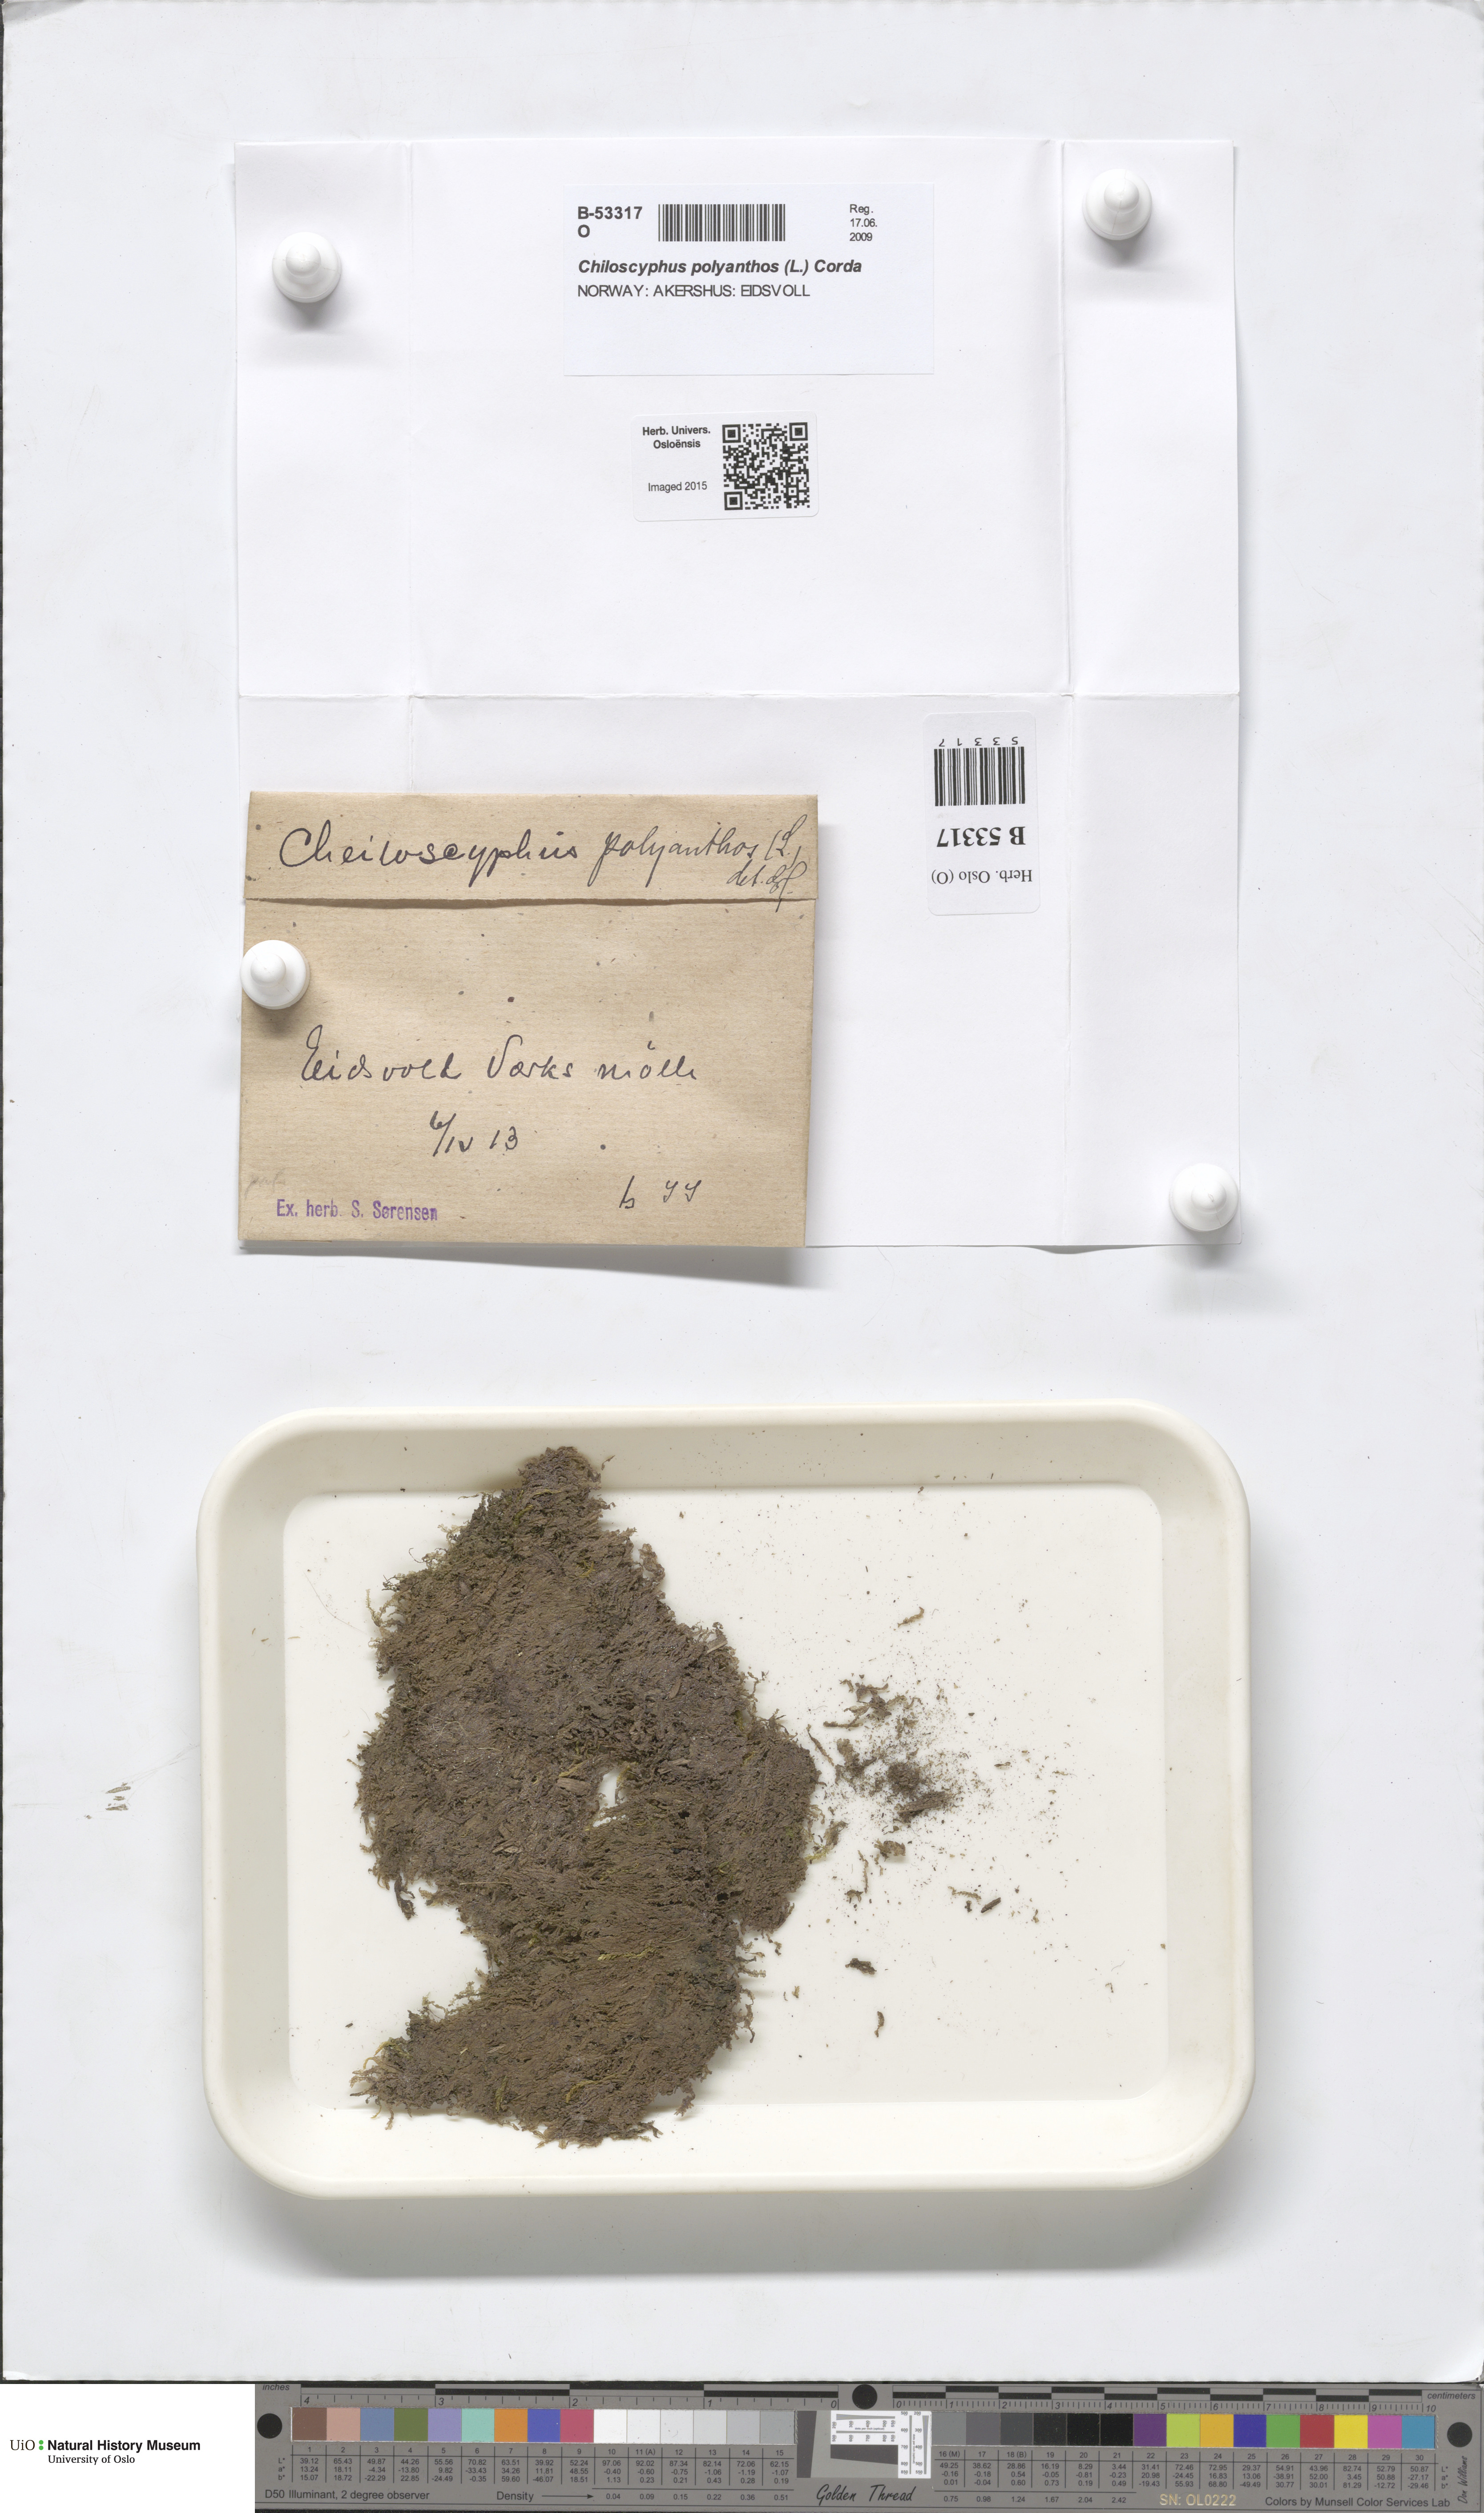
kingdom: Plantae
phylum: Marchantiophyta
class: Jungermanniopsida
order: Jungermanniales
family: Lophocoleaceae
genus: Chiloscyphus
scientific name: Chiloscyphus polyanthos
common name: Square-leaved crestwort
